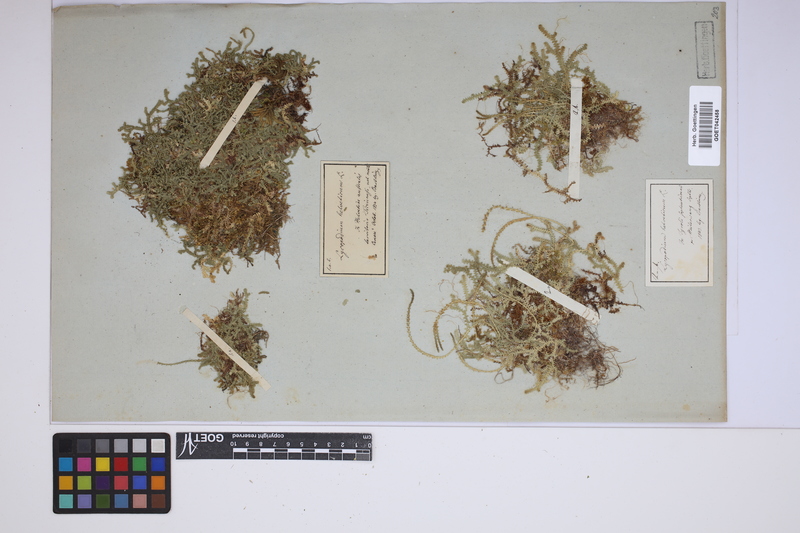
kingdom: Plantae
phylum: Tracheophyta
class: Lycopodiopsida
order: Selaginellales
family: Selaginellaceae
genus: Selaginella
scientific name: Selaginella helvetica
